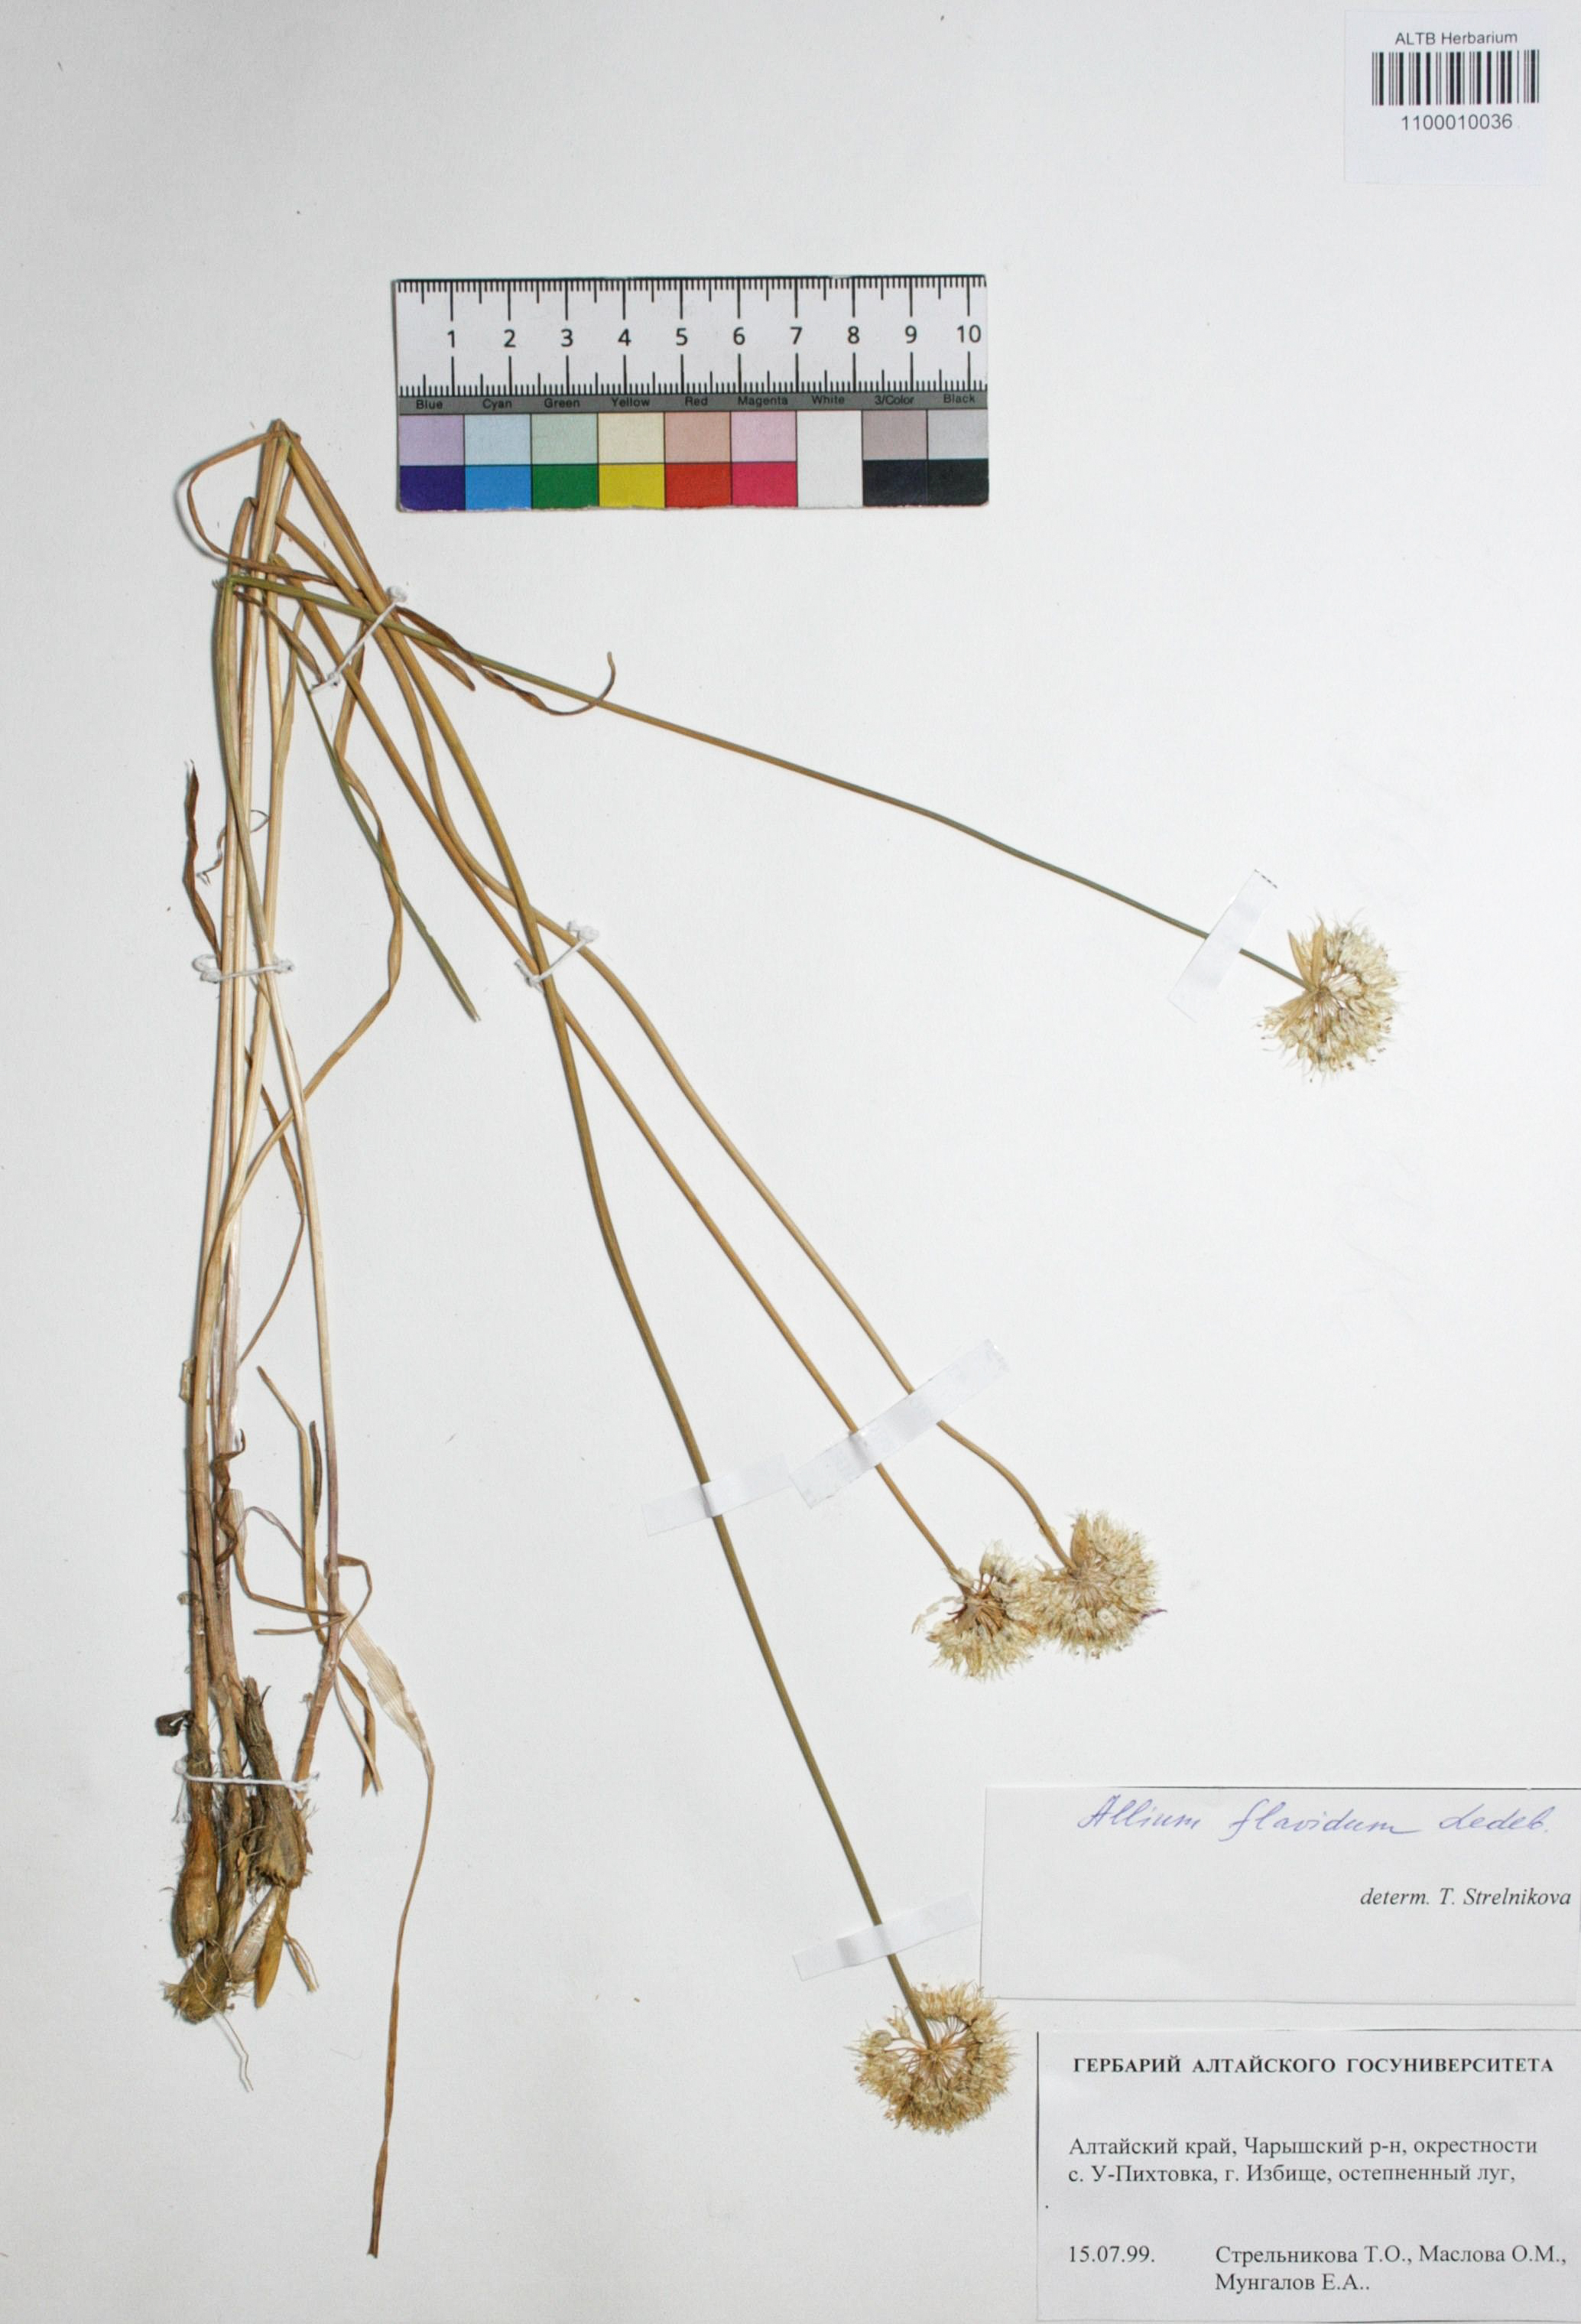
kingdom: Plantae
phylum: Tracheophyta
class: Liliopsida
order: Asparagales
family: Amaryllidaceae
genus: Allium
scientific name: Allium flavidum
